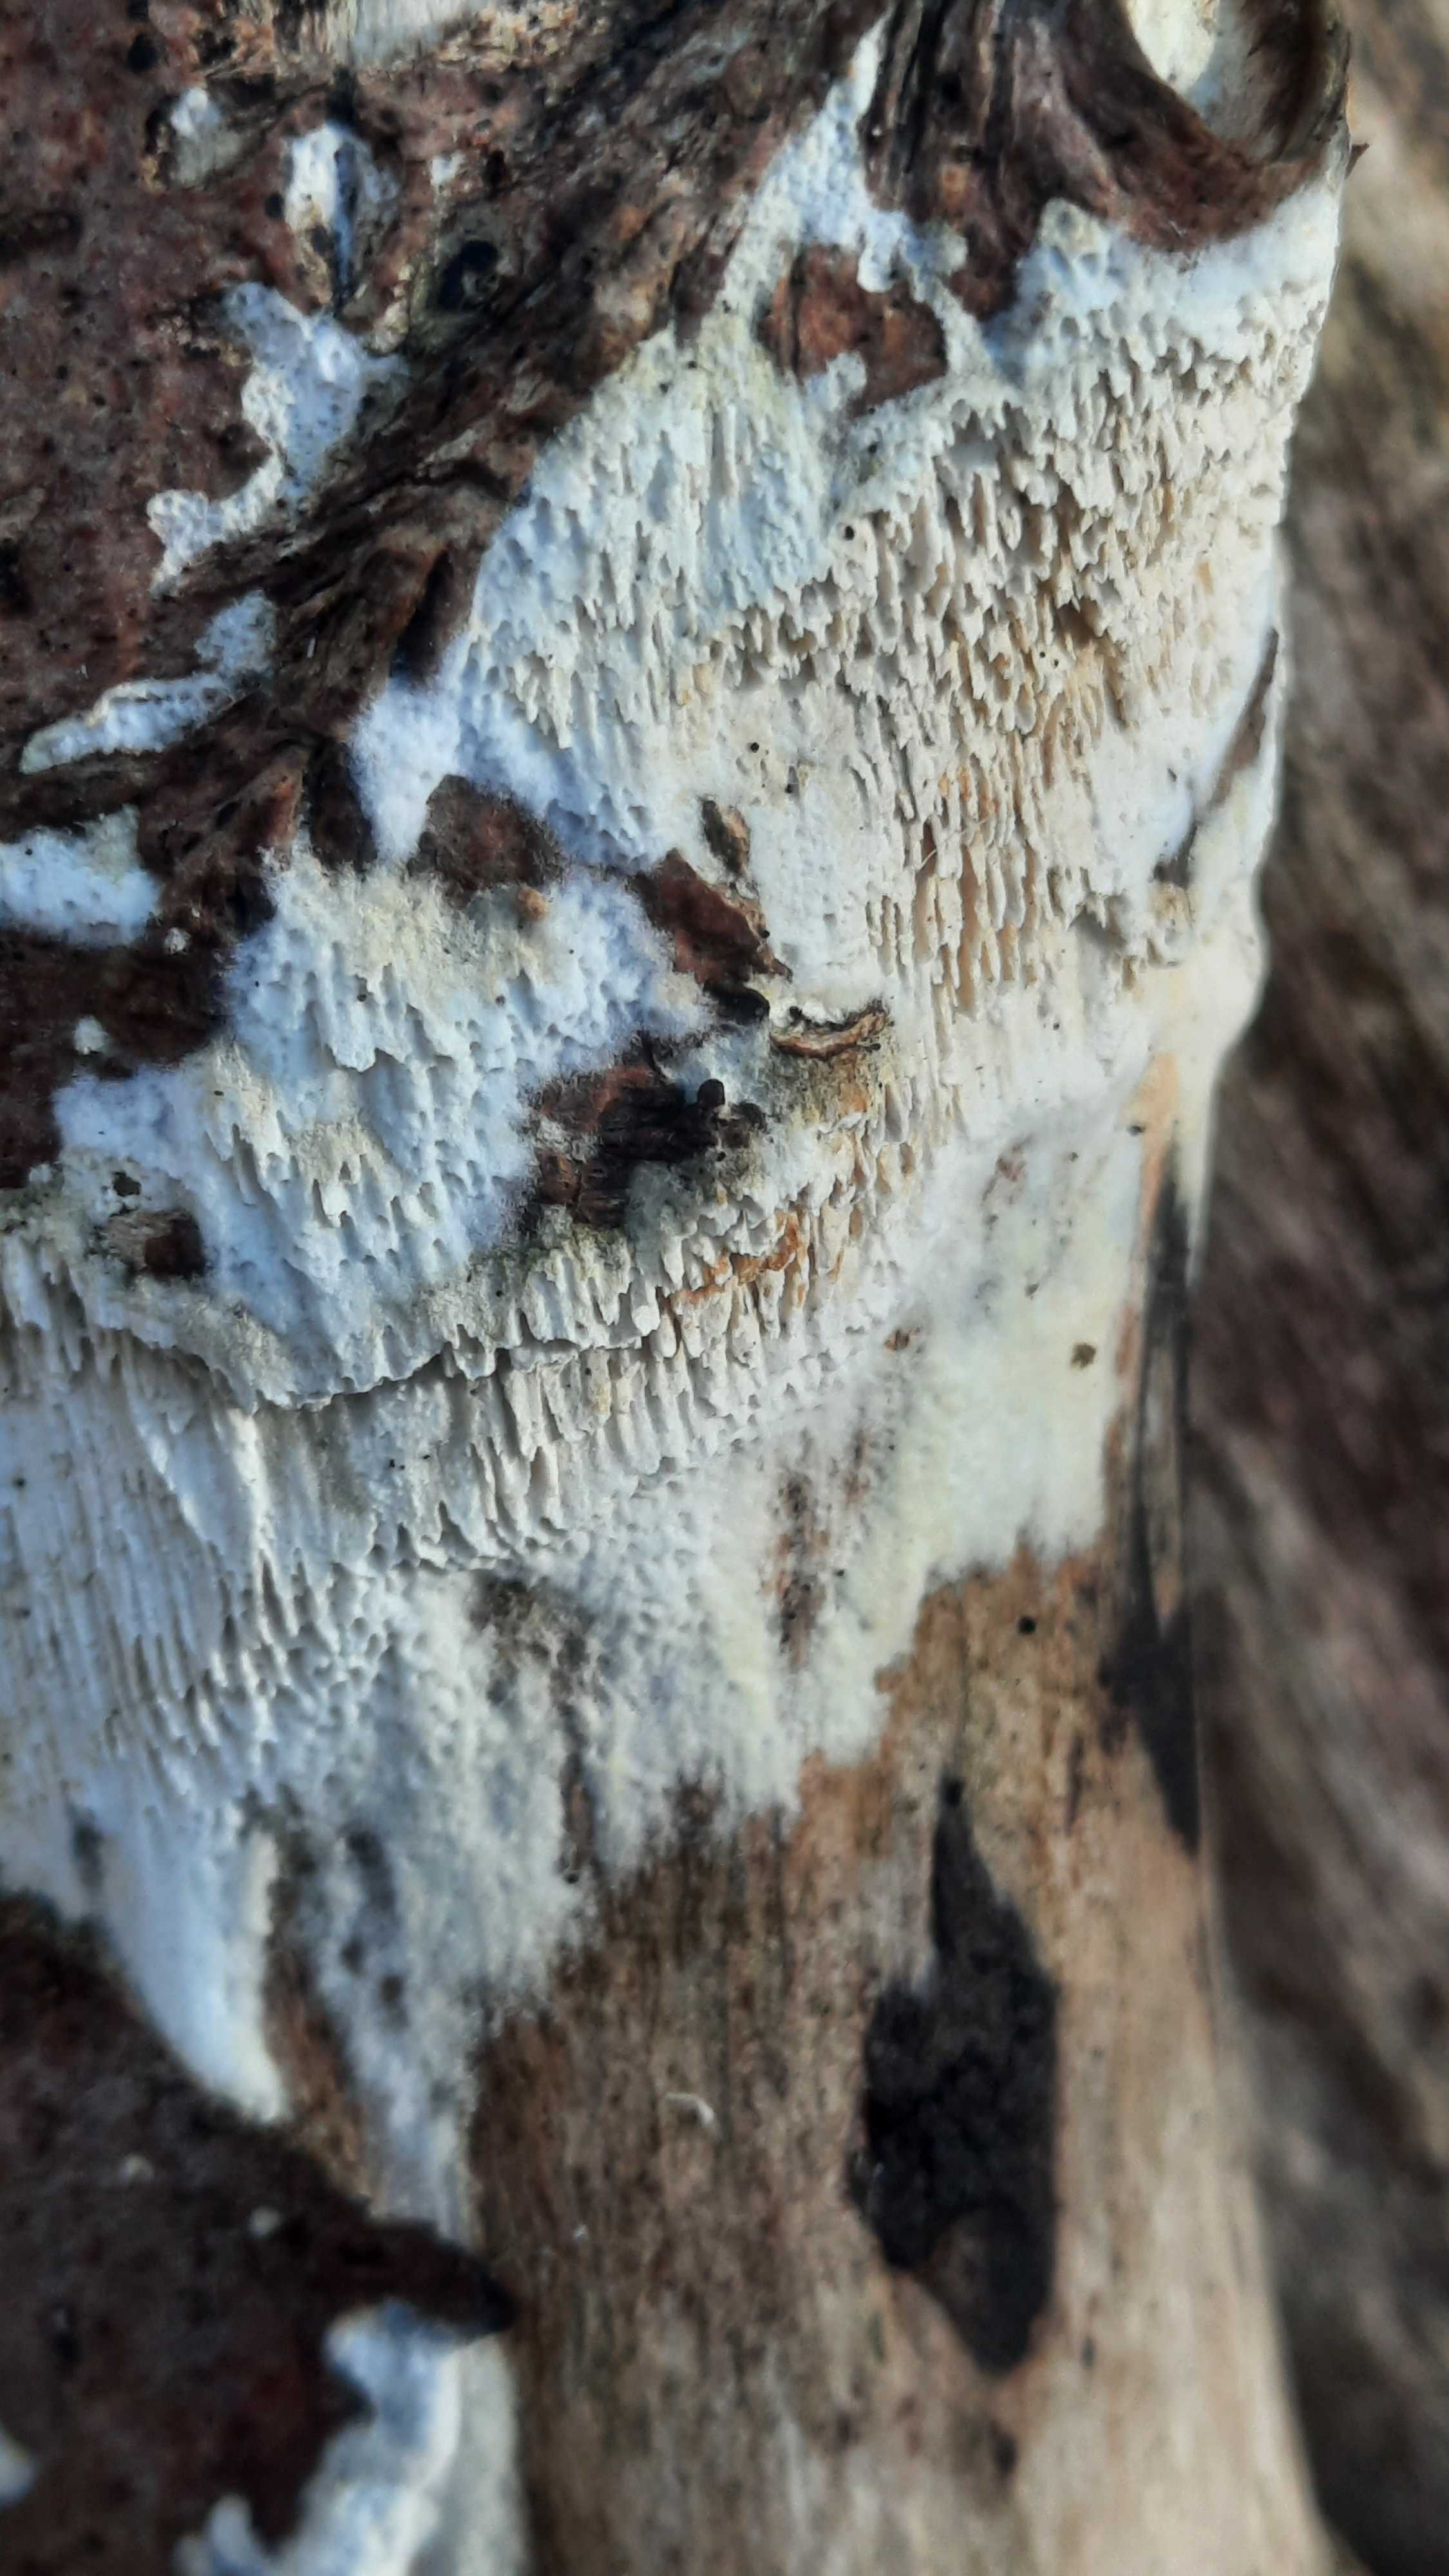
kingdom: Fungi
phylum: Basidiomycota
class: Agaricomycetes
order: Hymenochaetales
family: Schizoporaceae
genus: Schizopora
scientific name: Schizopora paradoxa
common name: hvid tandsvamp
